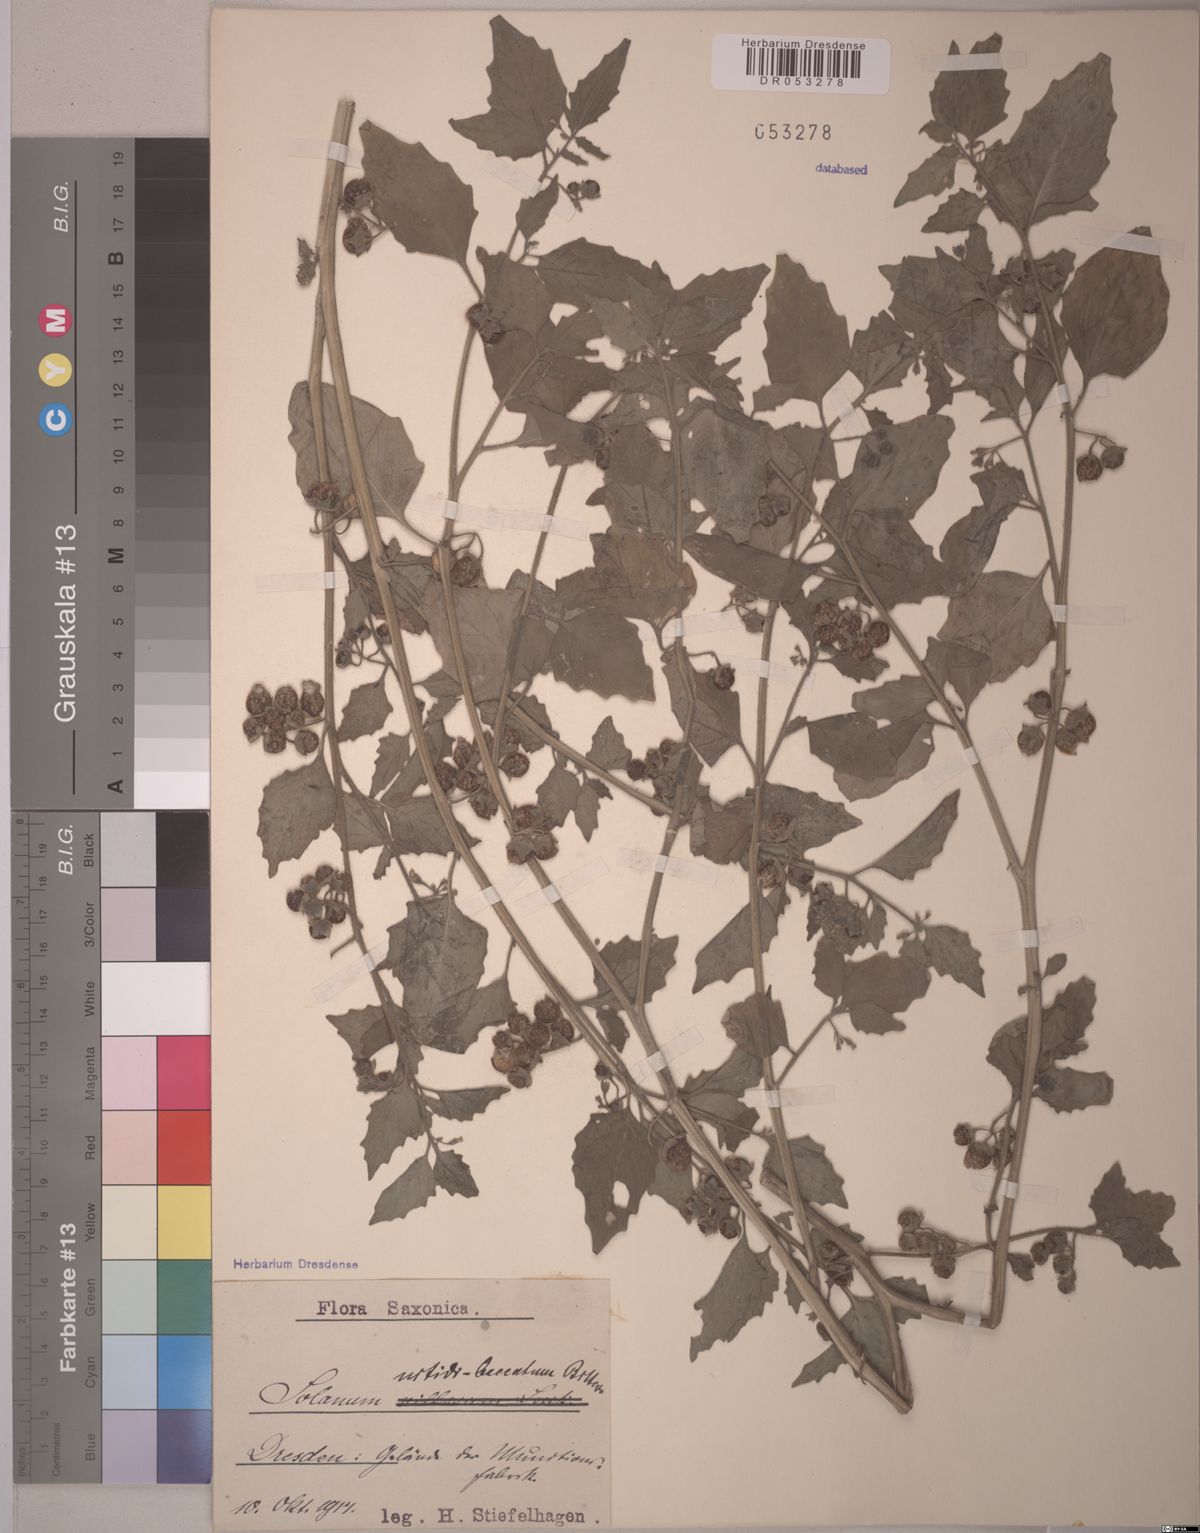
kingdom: Plantae
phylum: Tracheophyta
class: Magnoliopsida
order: Solanales
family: Solanaceae
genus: Solanum
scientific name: Solanum nitidibaccatum
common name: Hairy nightshade
